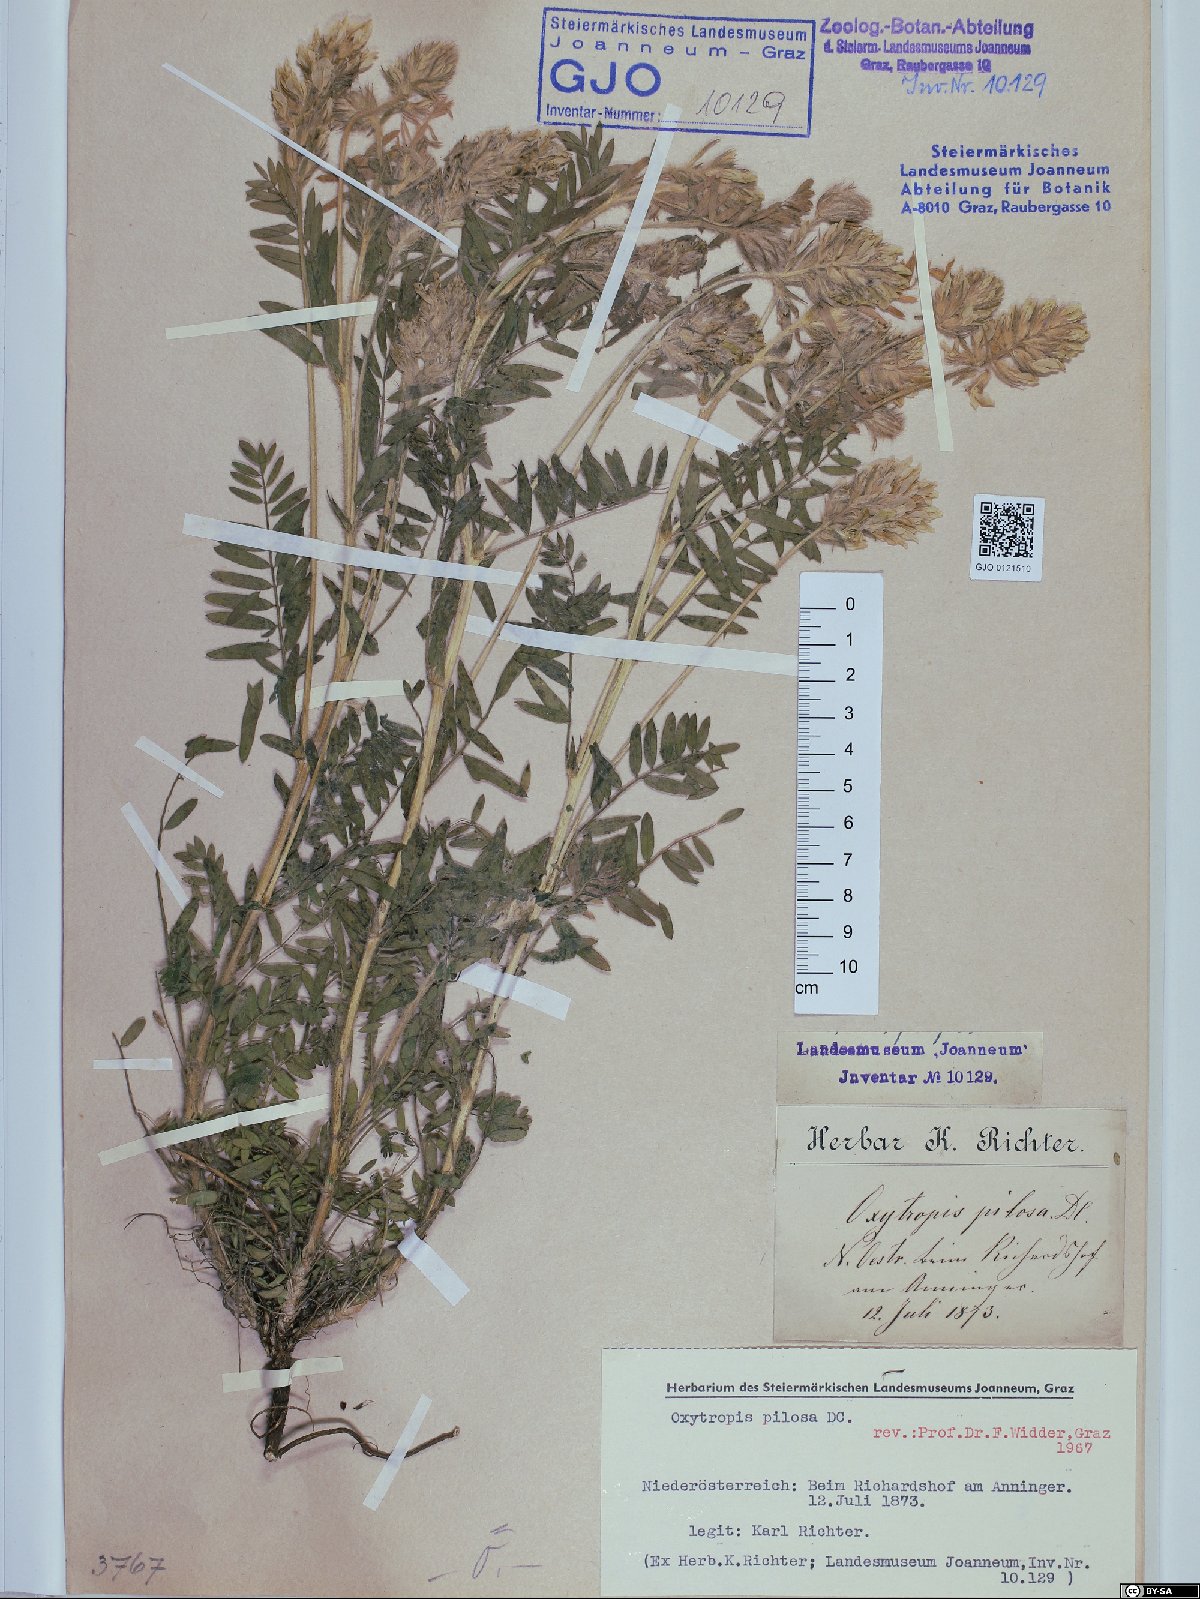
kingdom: Plantae
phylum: Tracheophyta
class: Magnoliopsida
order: Fabales
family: Fabaceae
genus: Oxytropis
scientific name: Oxytropis pilosa
